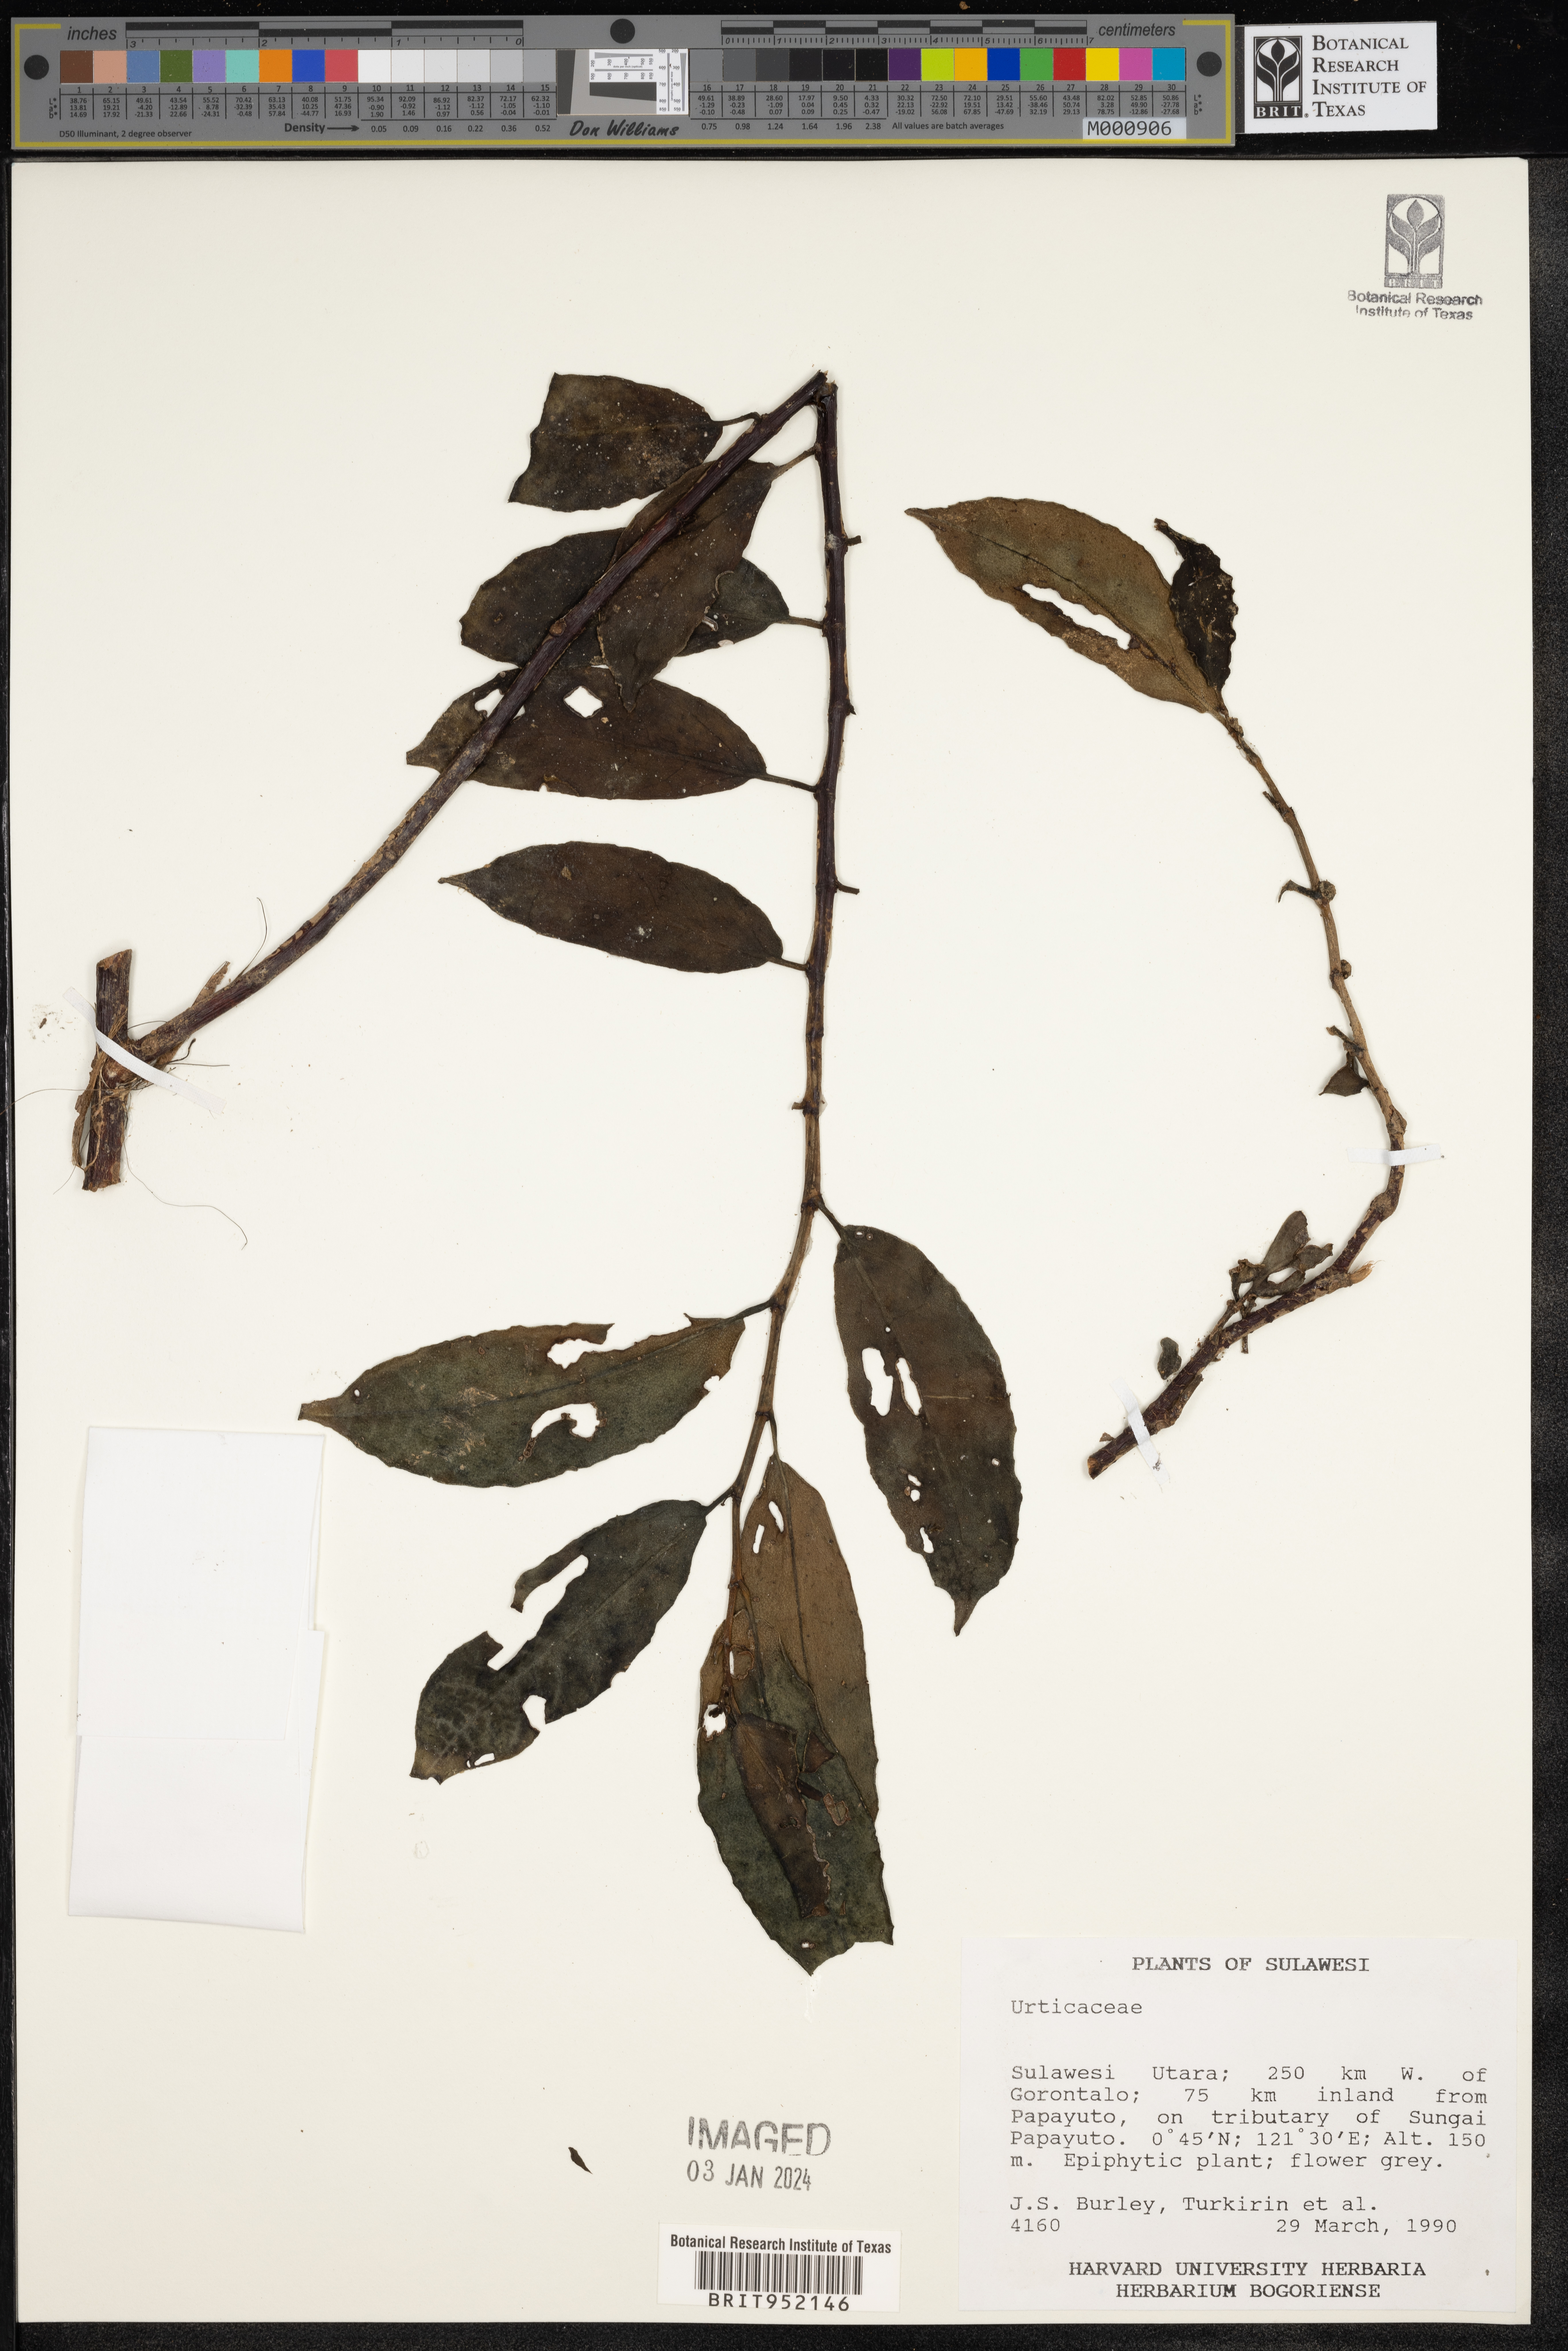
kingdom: Plantae
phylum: Tracheophyta
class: Magnoliopsida
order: Rosales
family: Urticaceae
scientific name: Urticaceae
